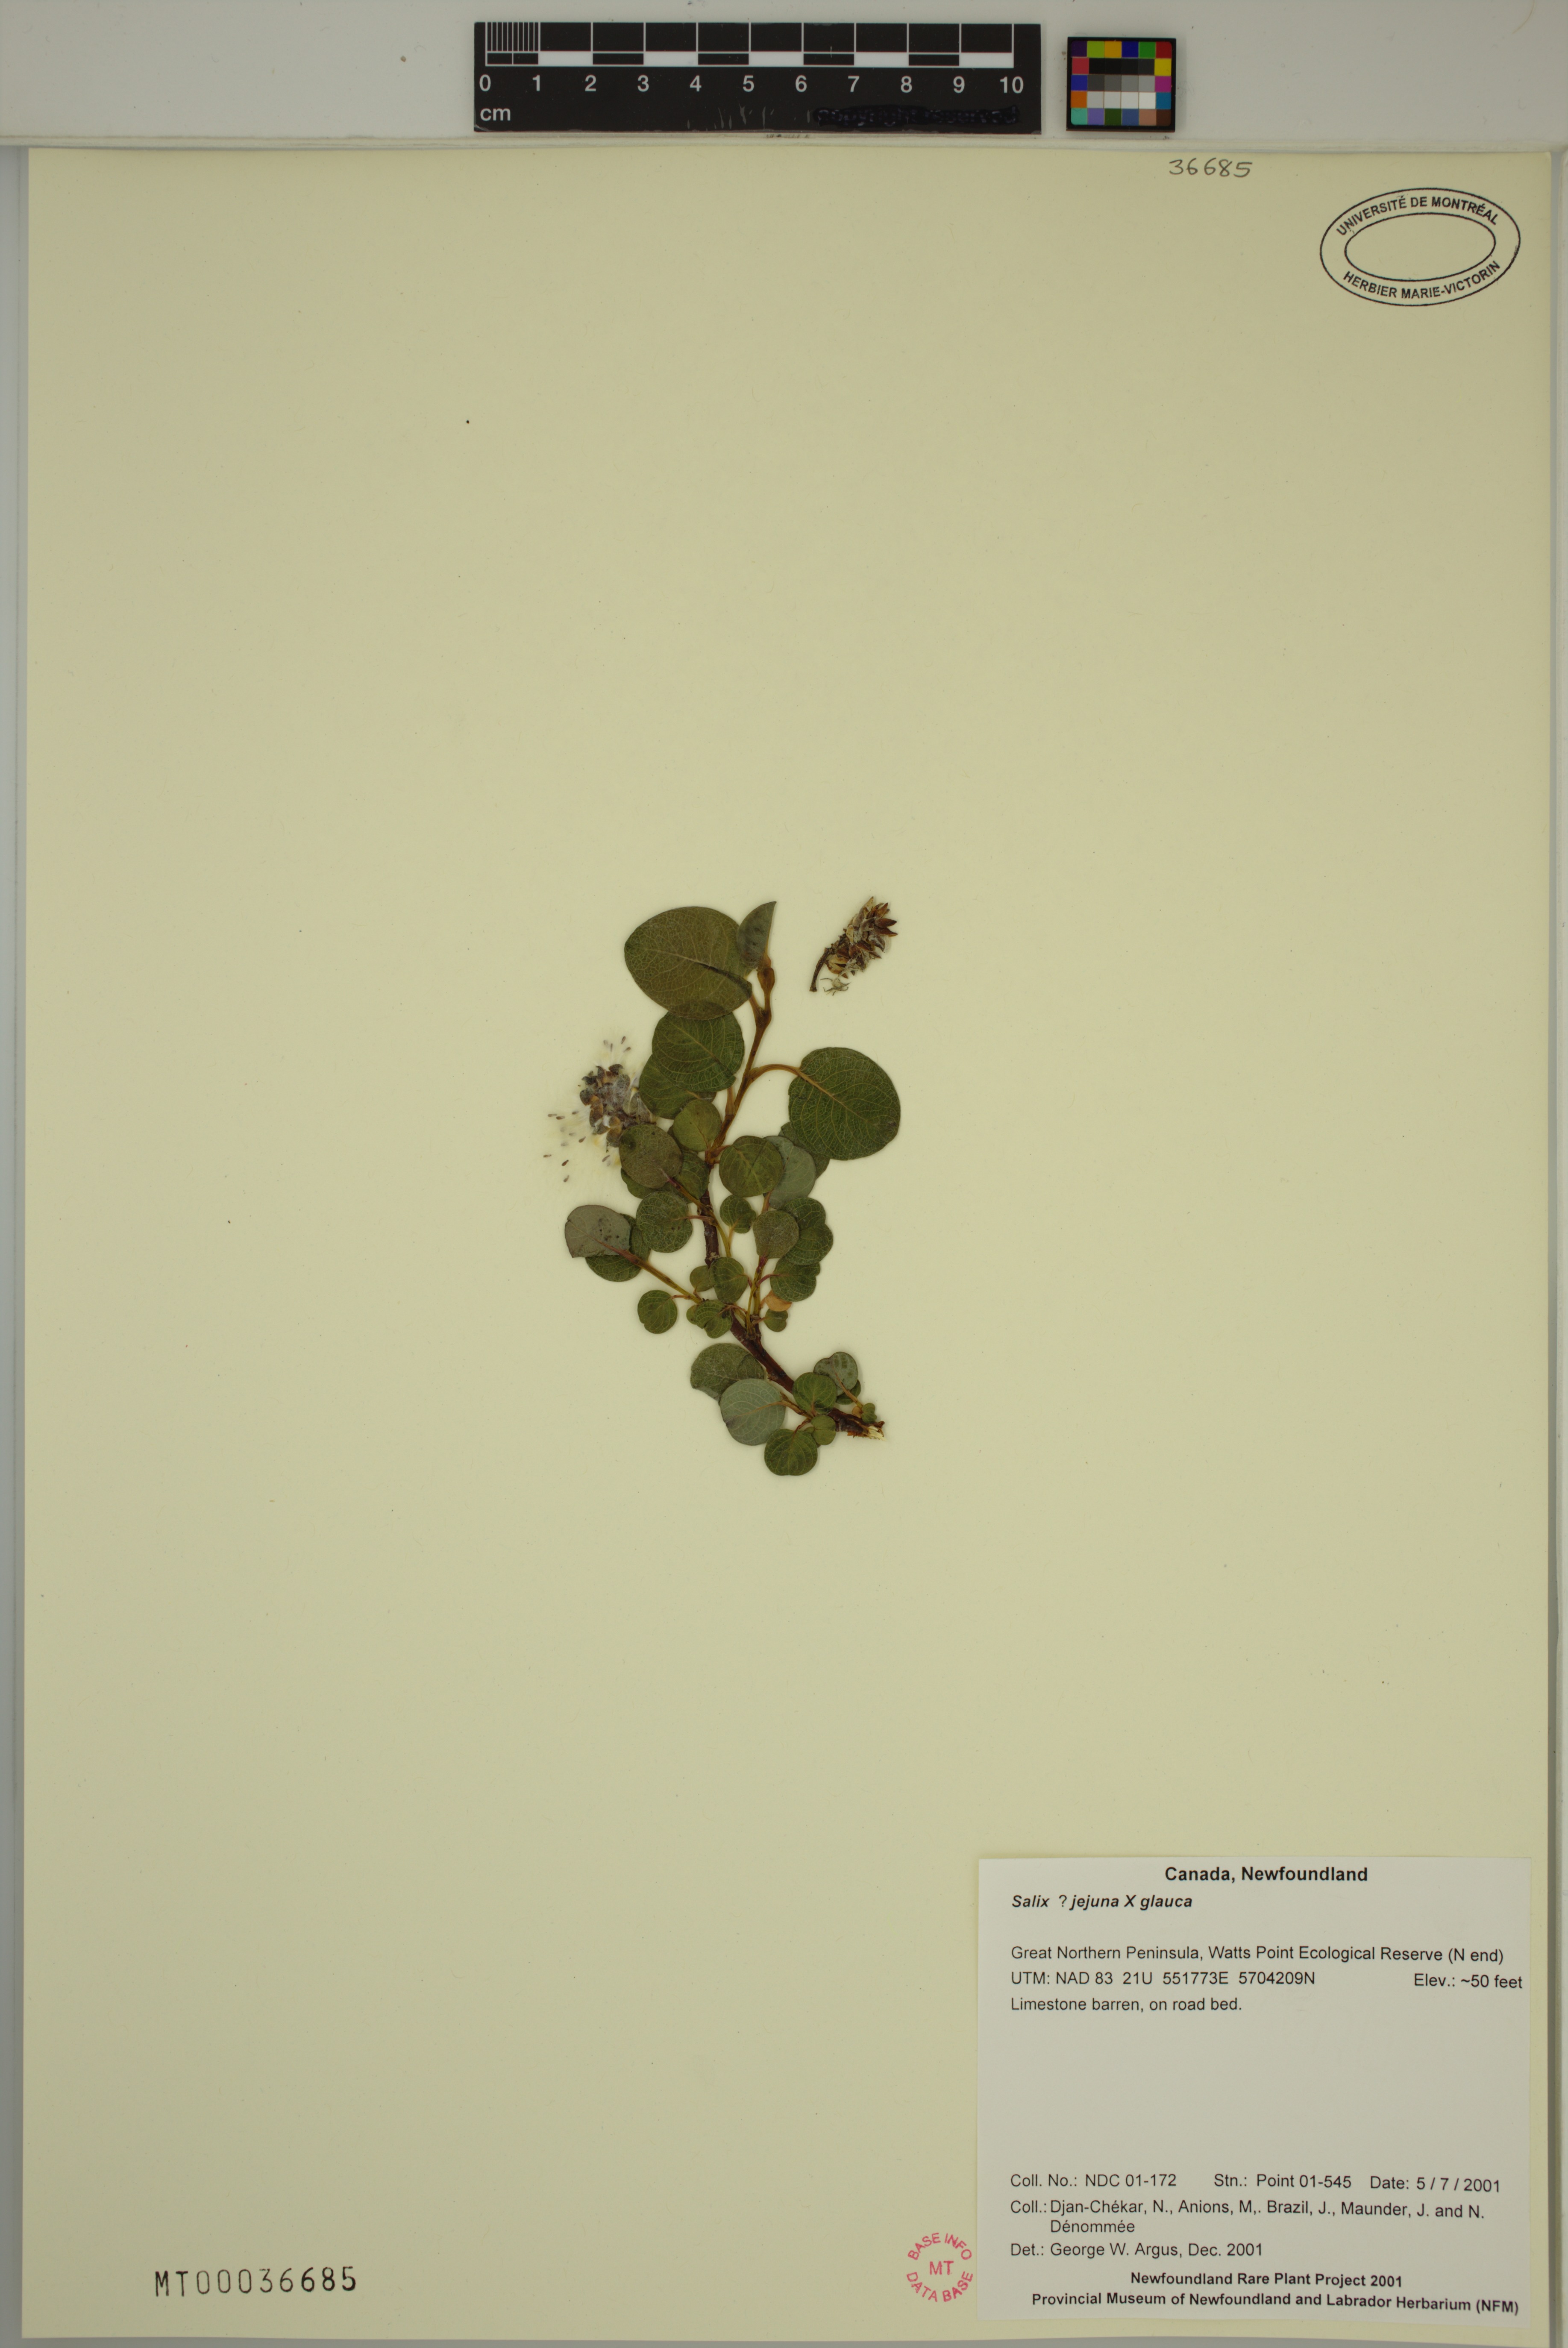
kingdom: Plantae
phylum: Tracheophyta
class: Magnoliopsida
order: Malpighiales
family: Salicaceae
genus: Salix
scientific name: Salix glauca
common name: Glaucous willow
